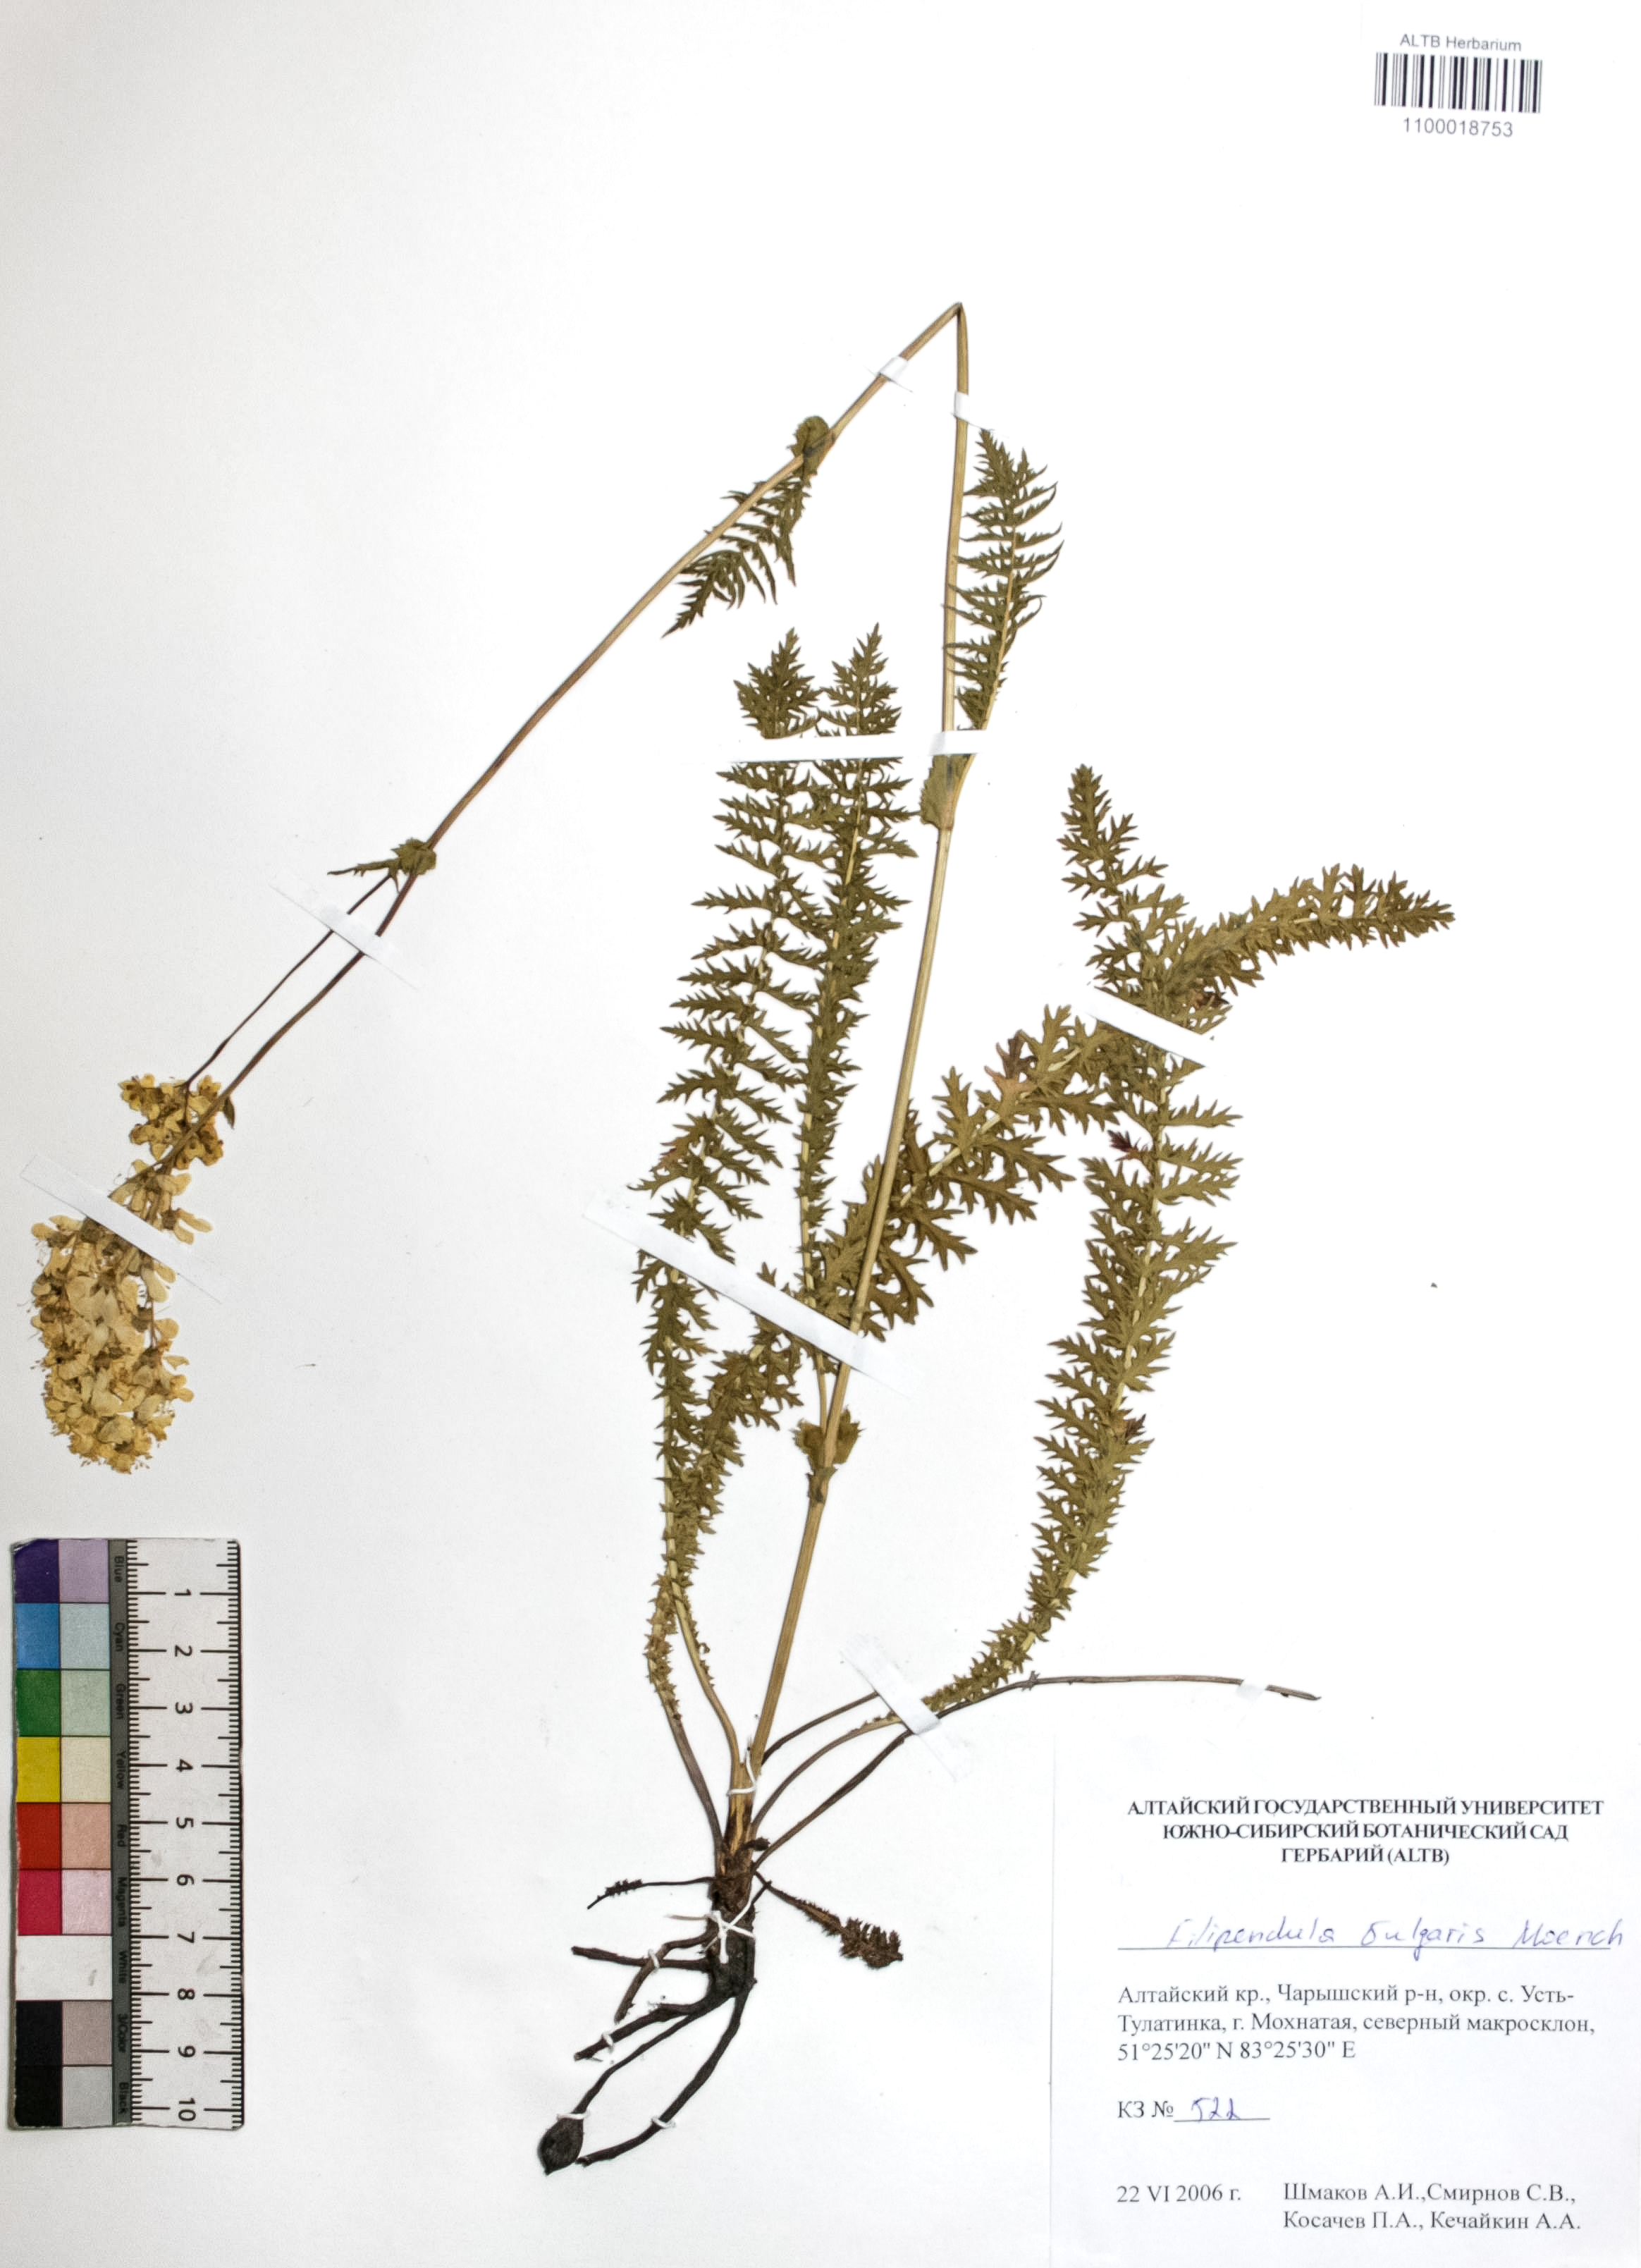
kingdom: Plantae
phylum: Tracheophyta
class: Magnoliopsida
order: Rosales
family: Rosaceae
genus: Filipendula
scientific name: Filipendula vulgaris
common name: Dropwort
